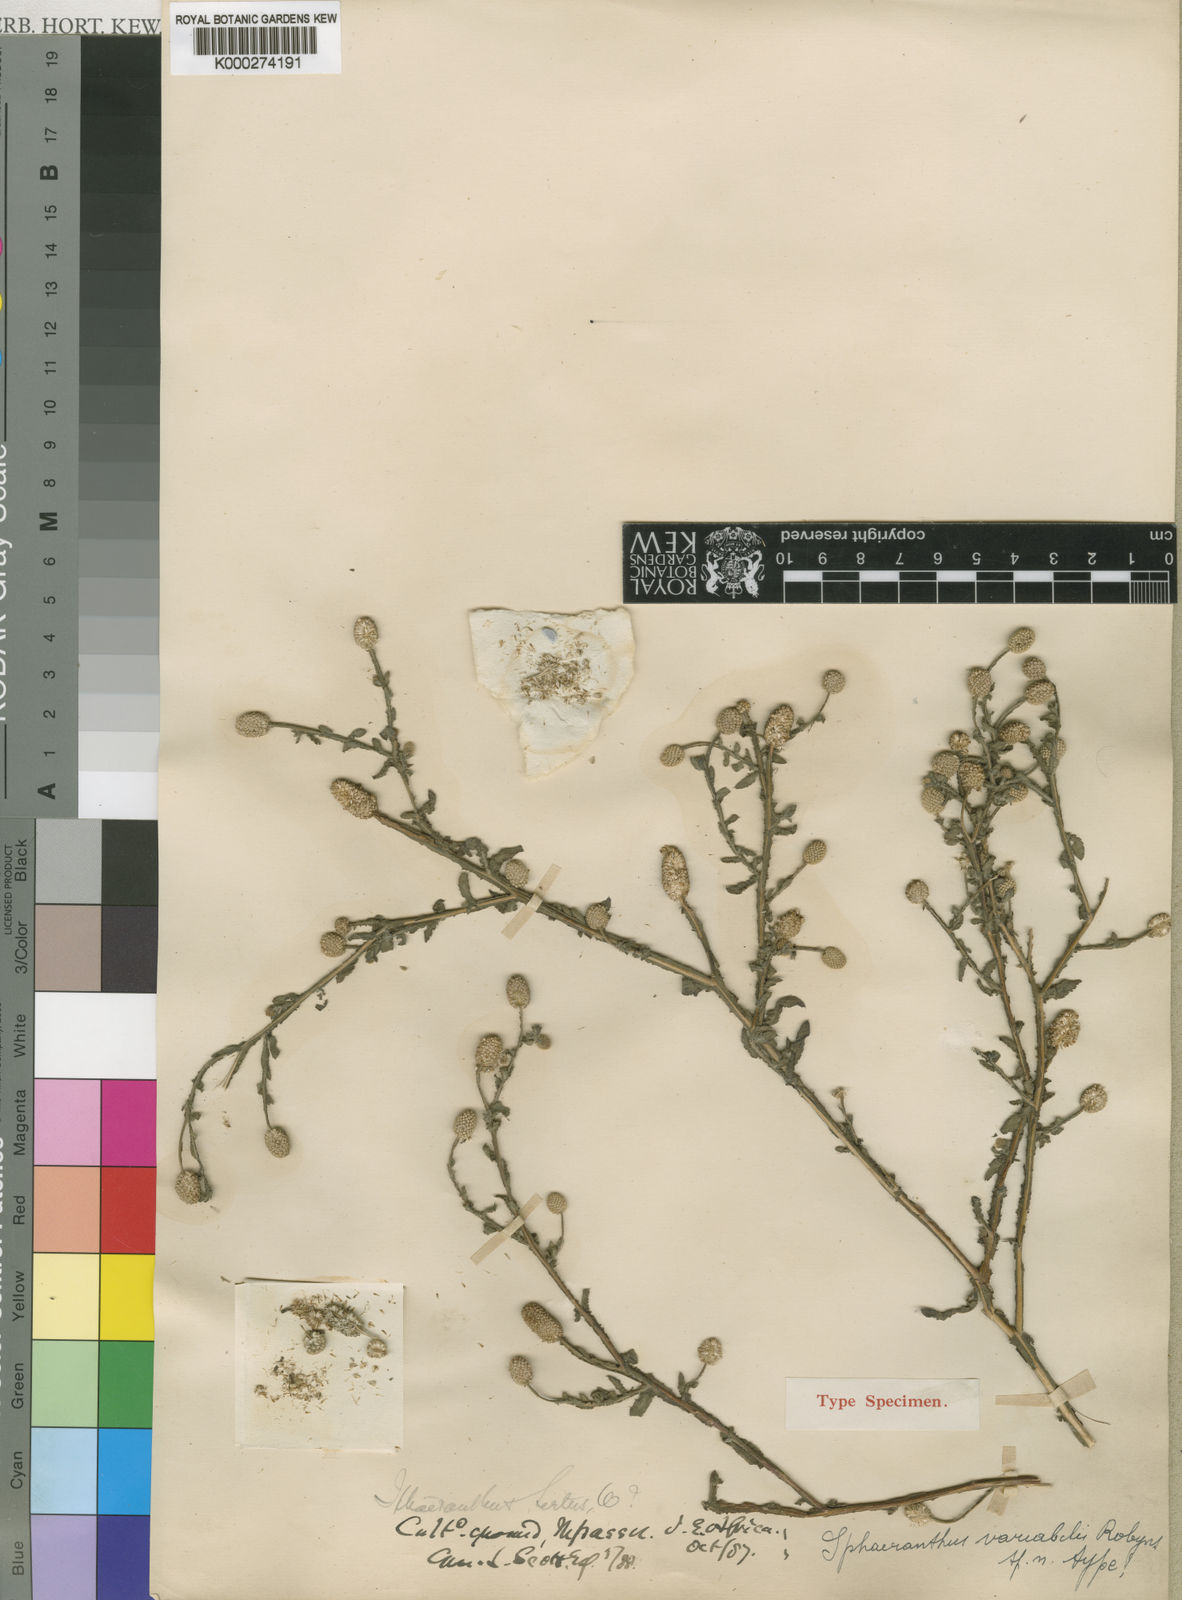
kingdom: Plantae
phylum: Tracheophyta
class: Magnoliopsida
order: Asterales
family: Asteraceae
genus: Sphaeranthus
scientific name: Sphaeranthus angolensis
